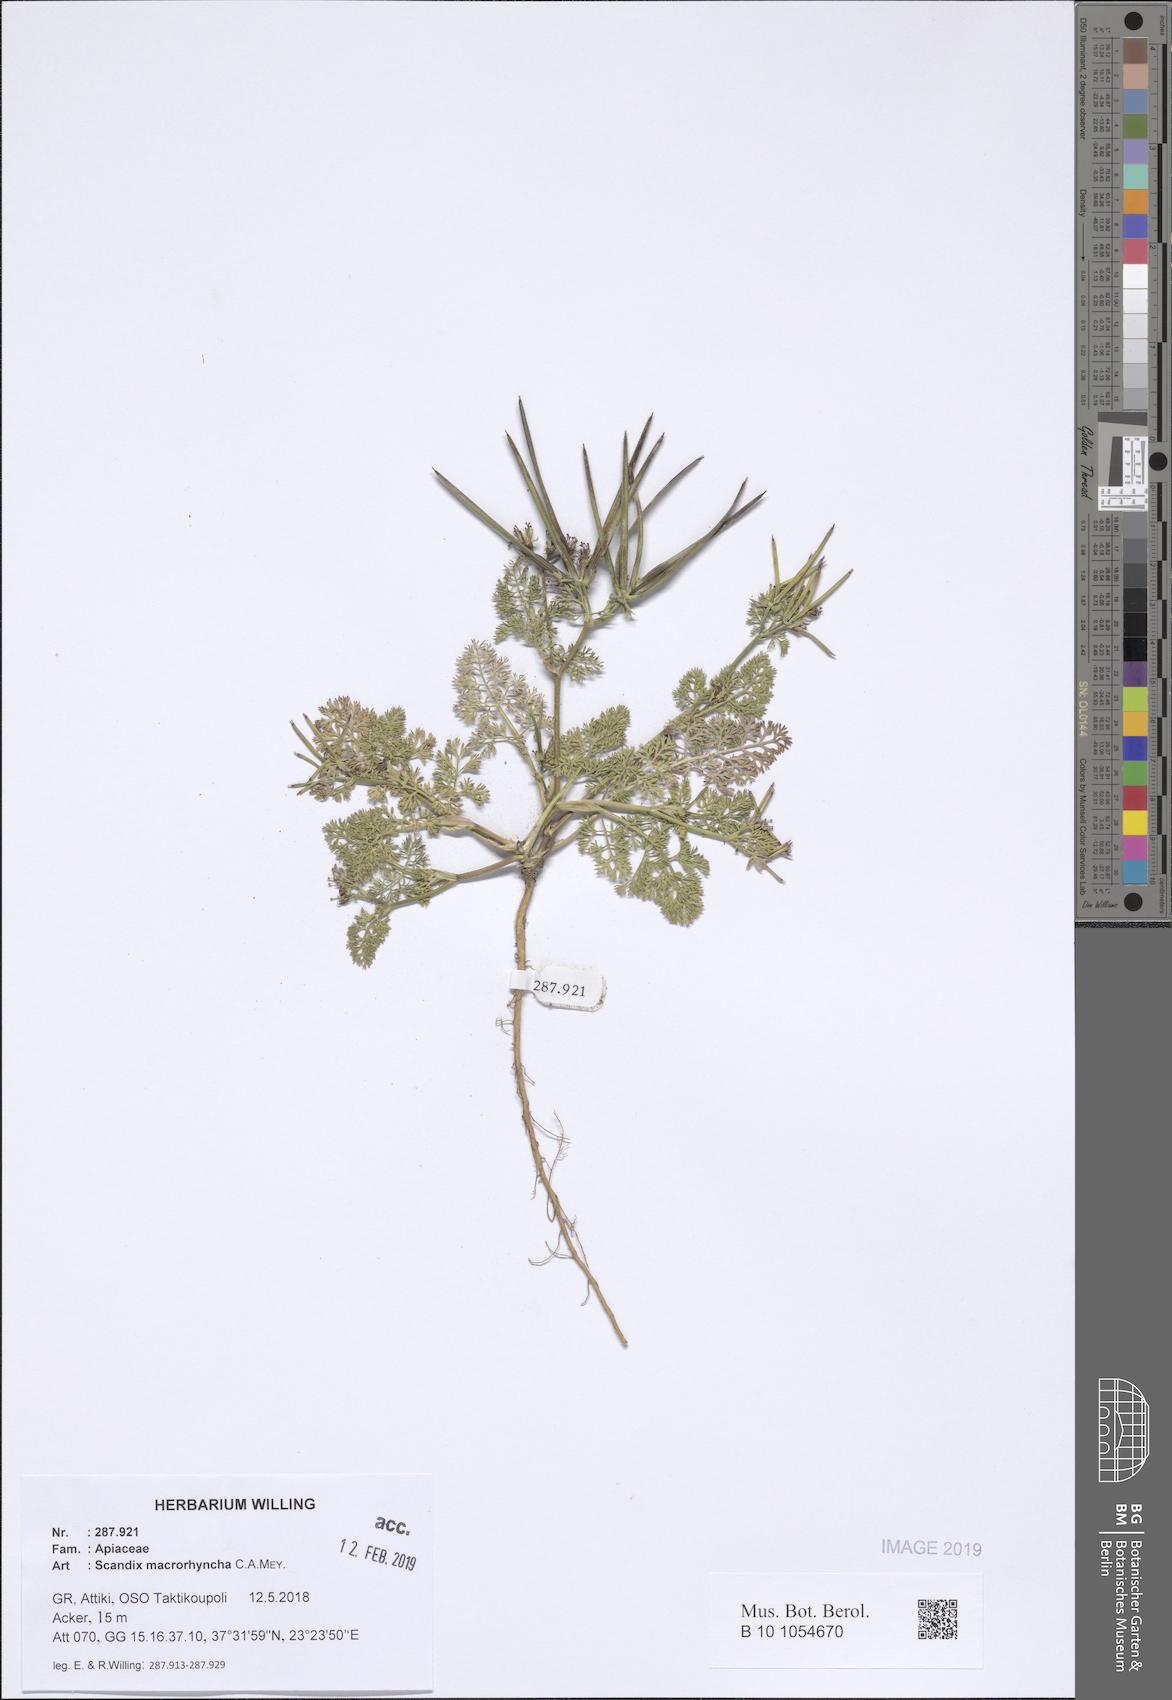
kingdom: Plantae
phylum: Tracheophyta
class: Magnoliopsida
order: Apiales
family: Apiaceae
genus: Scandix
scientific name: Scandix macrorhyncha
